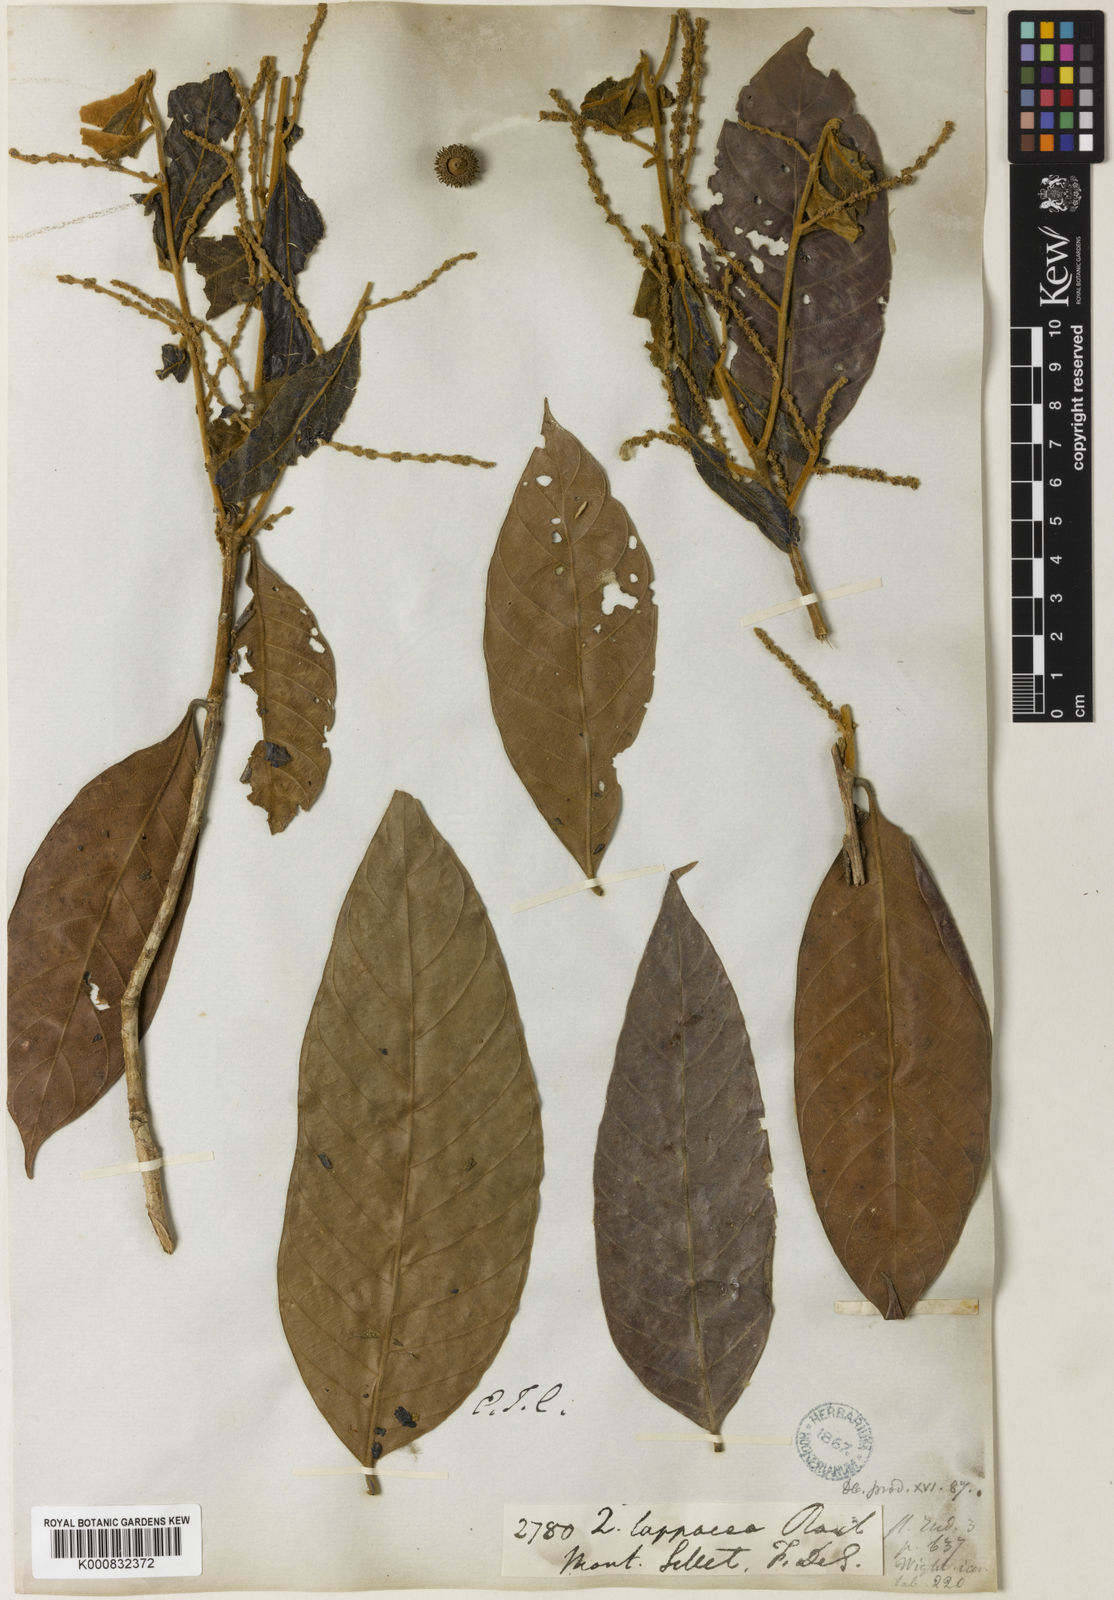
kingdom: Plantae
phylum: Tracheophyta
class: Magnoliopsida
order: Fagales
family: Fagaceae
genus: Lithocarpus
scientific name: Lithocarpus lappaceus
